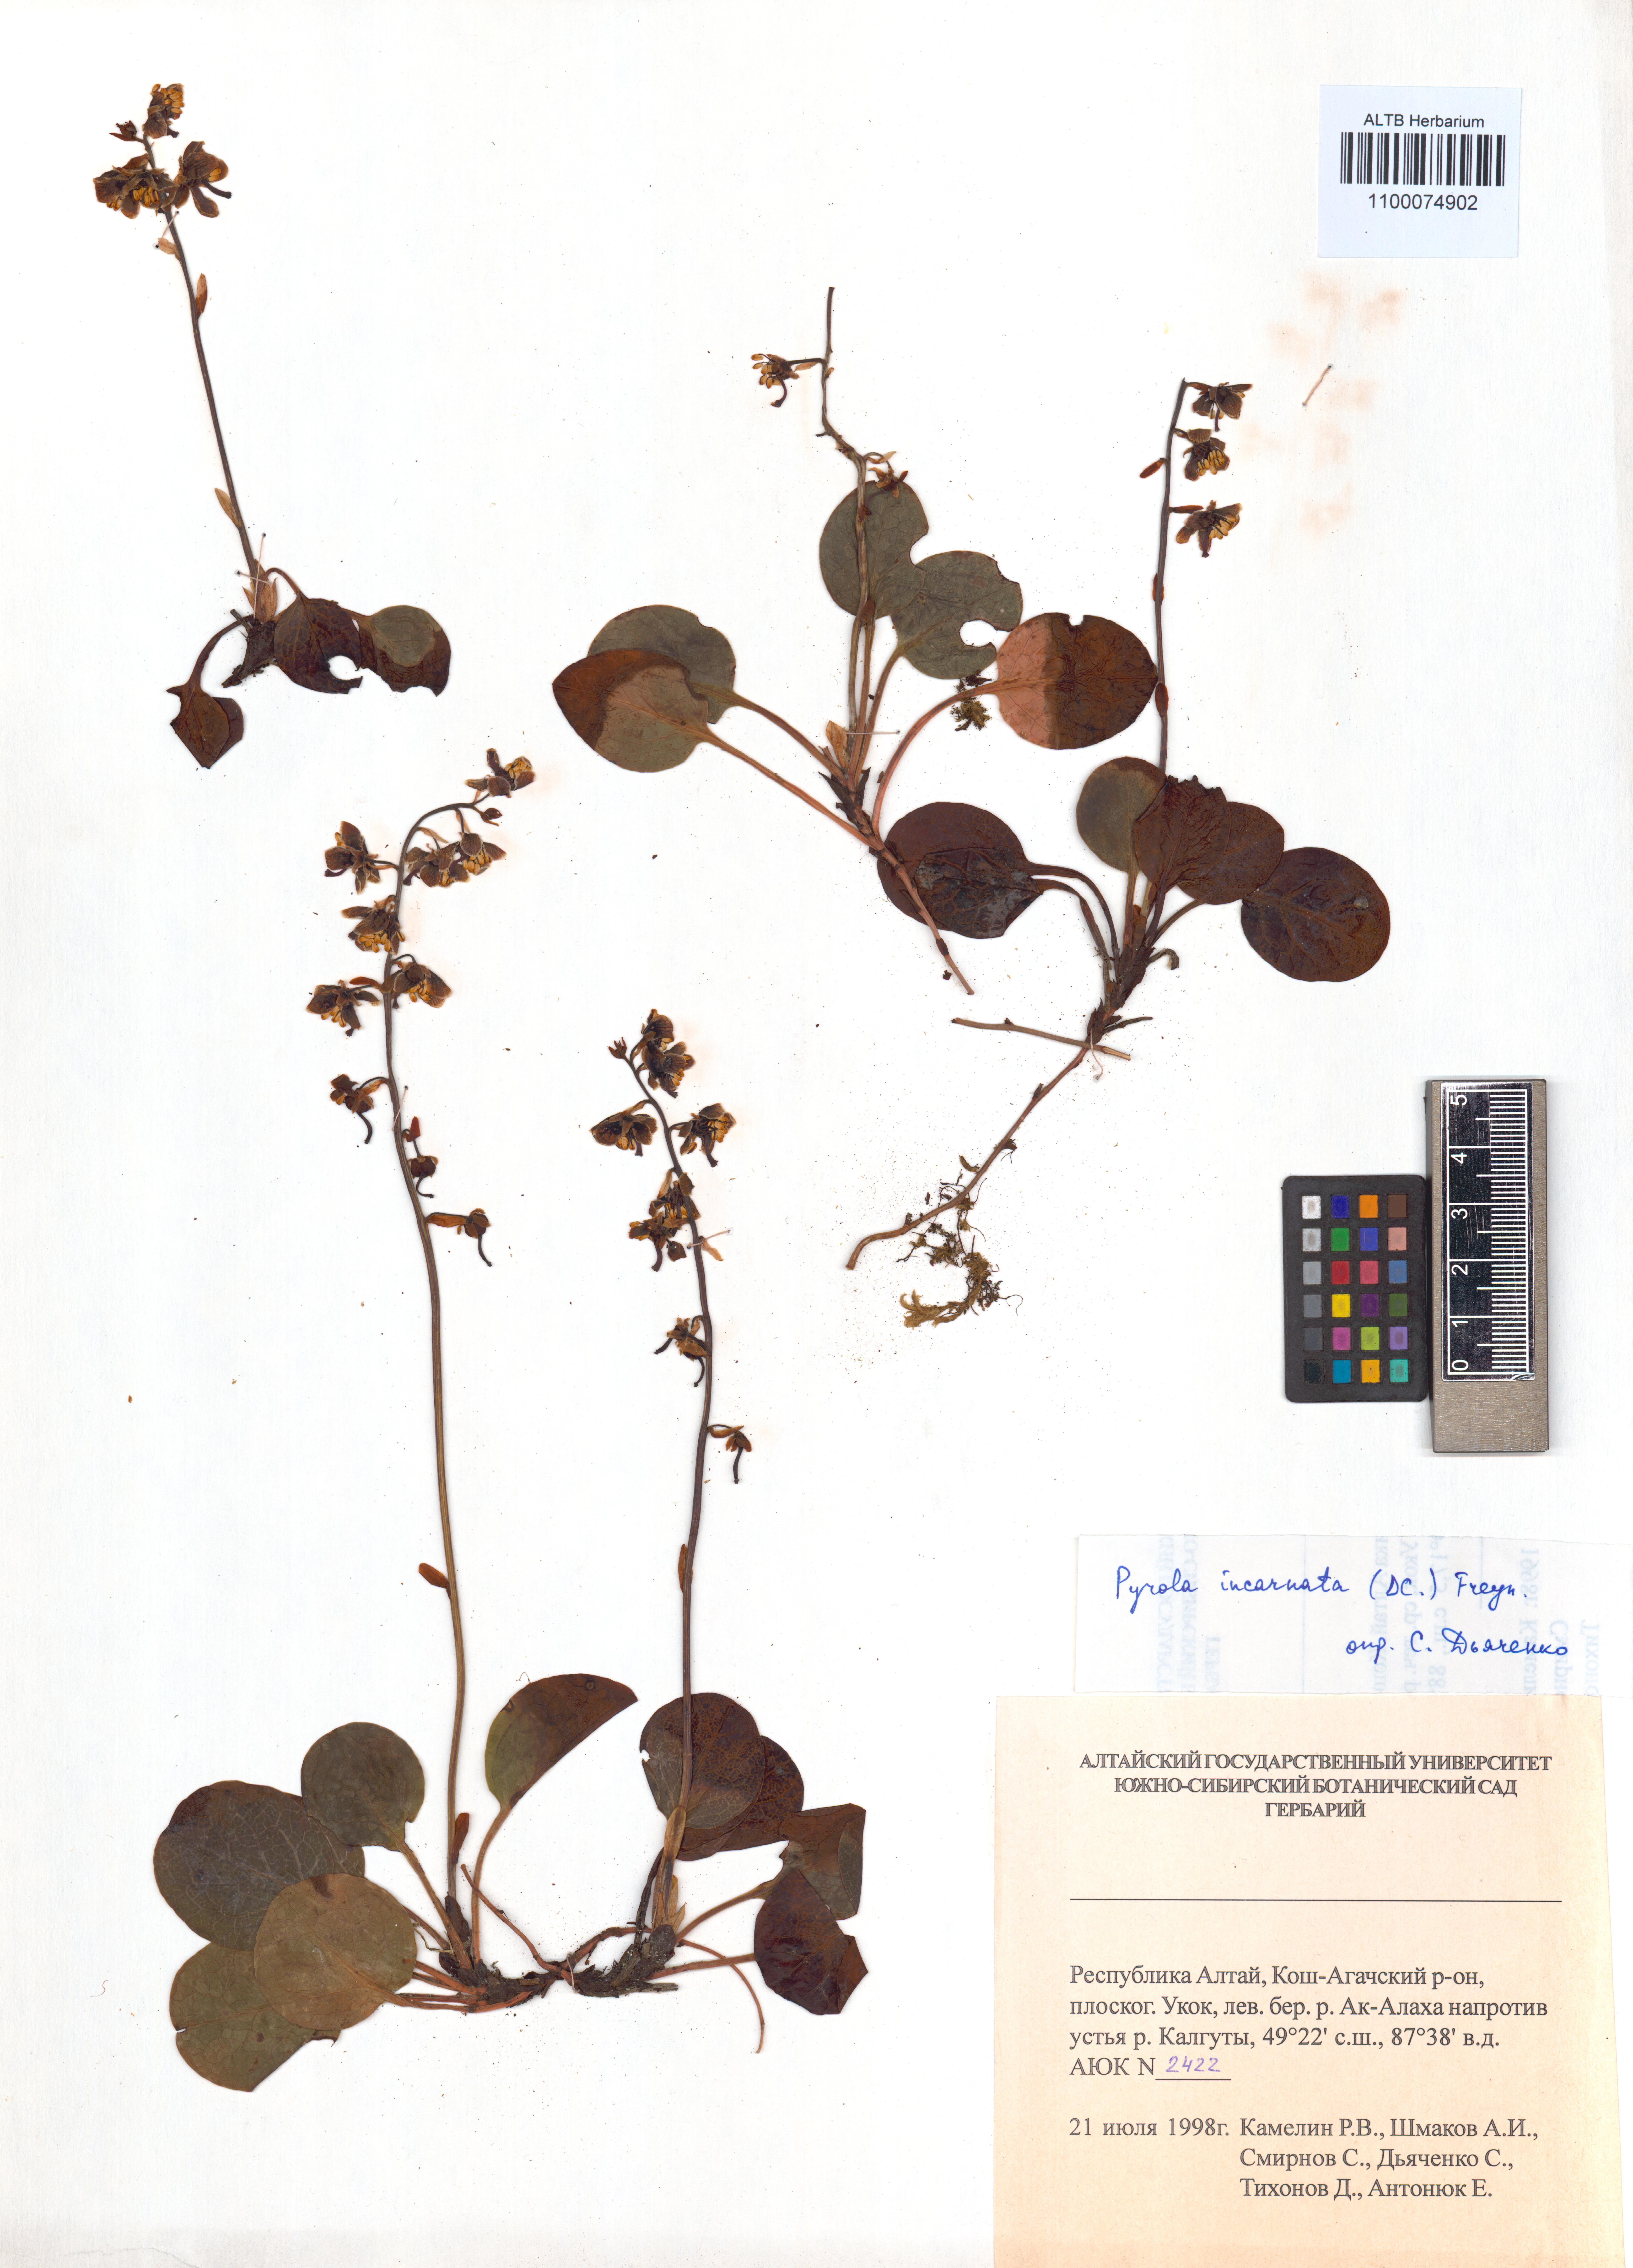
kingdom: Plantae
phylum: Tracheophyta
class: Magnoliopsida
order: Ericales
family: Ericaceae
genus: Pyrola
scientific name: Pyrola asarifolia
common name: Bog wintergreen
